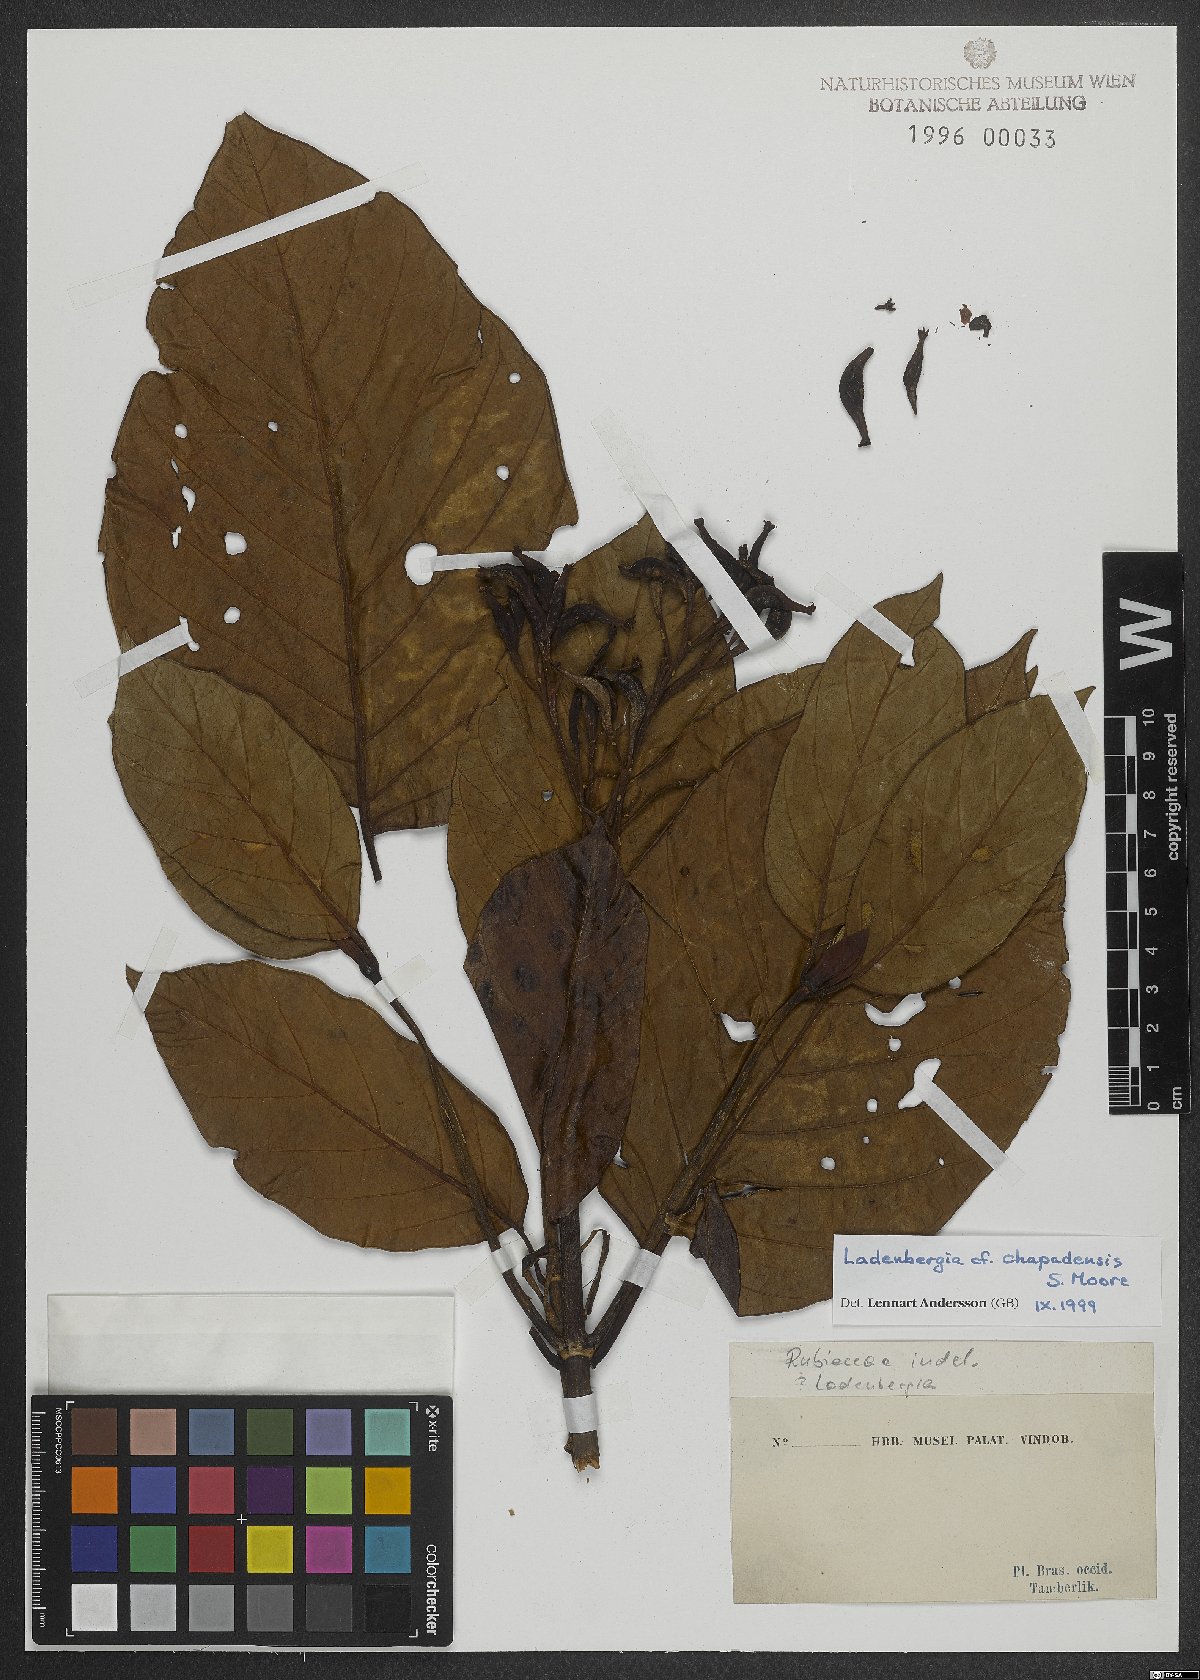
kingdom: Plantae
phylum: Tracheophyta
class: Magnoliopsida
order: Gentianales
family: Rubiaceae
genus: Ladenbergia
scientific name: Ladenbergia chapadensis
